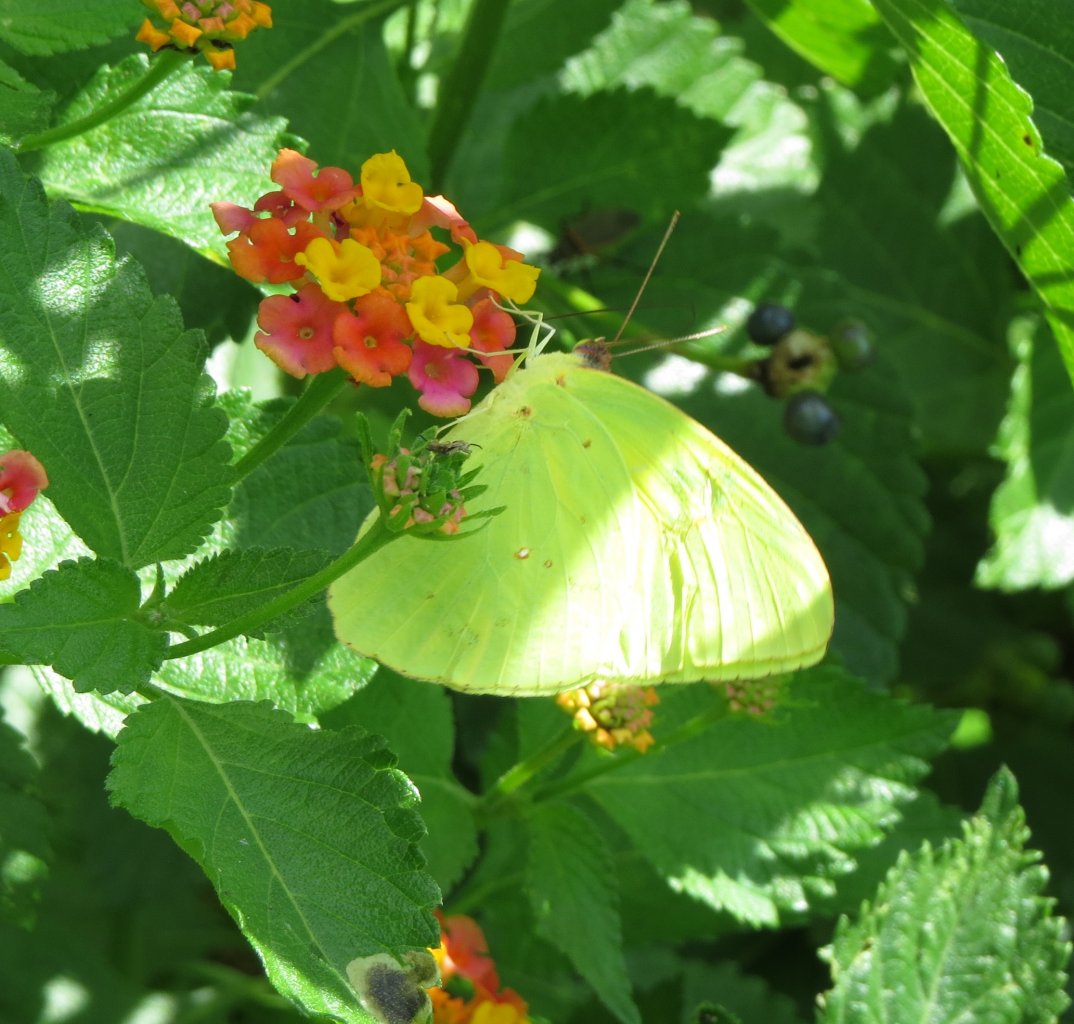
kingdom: Animalia
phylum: Arthropoda
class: Insecta
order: Lepidoptera
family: Pieridae
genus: Phoebis
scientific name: Phoebis sennae
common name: Cloudless Sulphur
